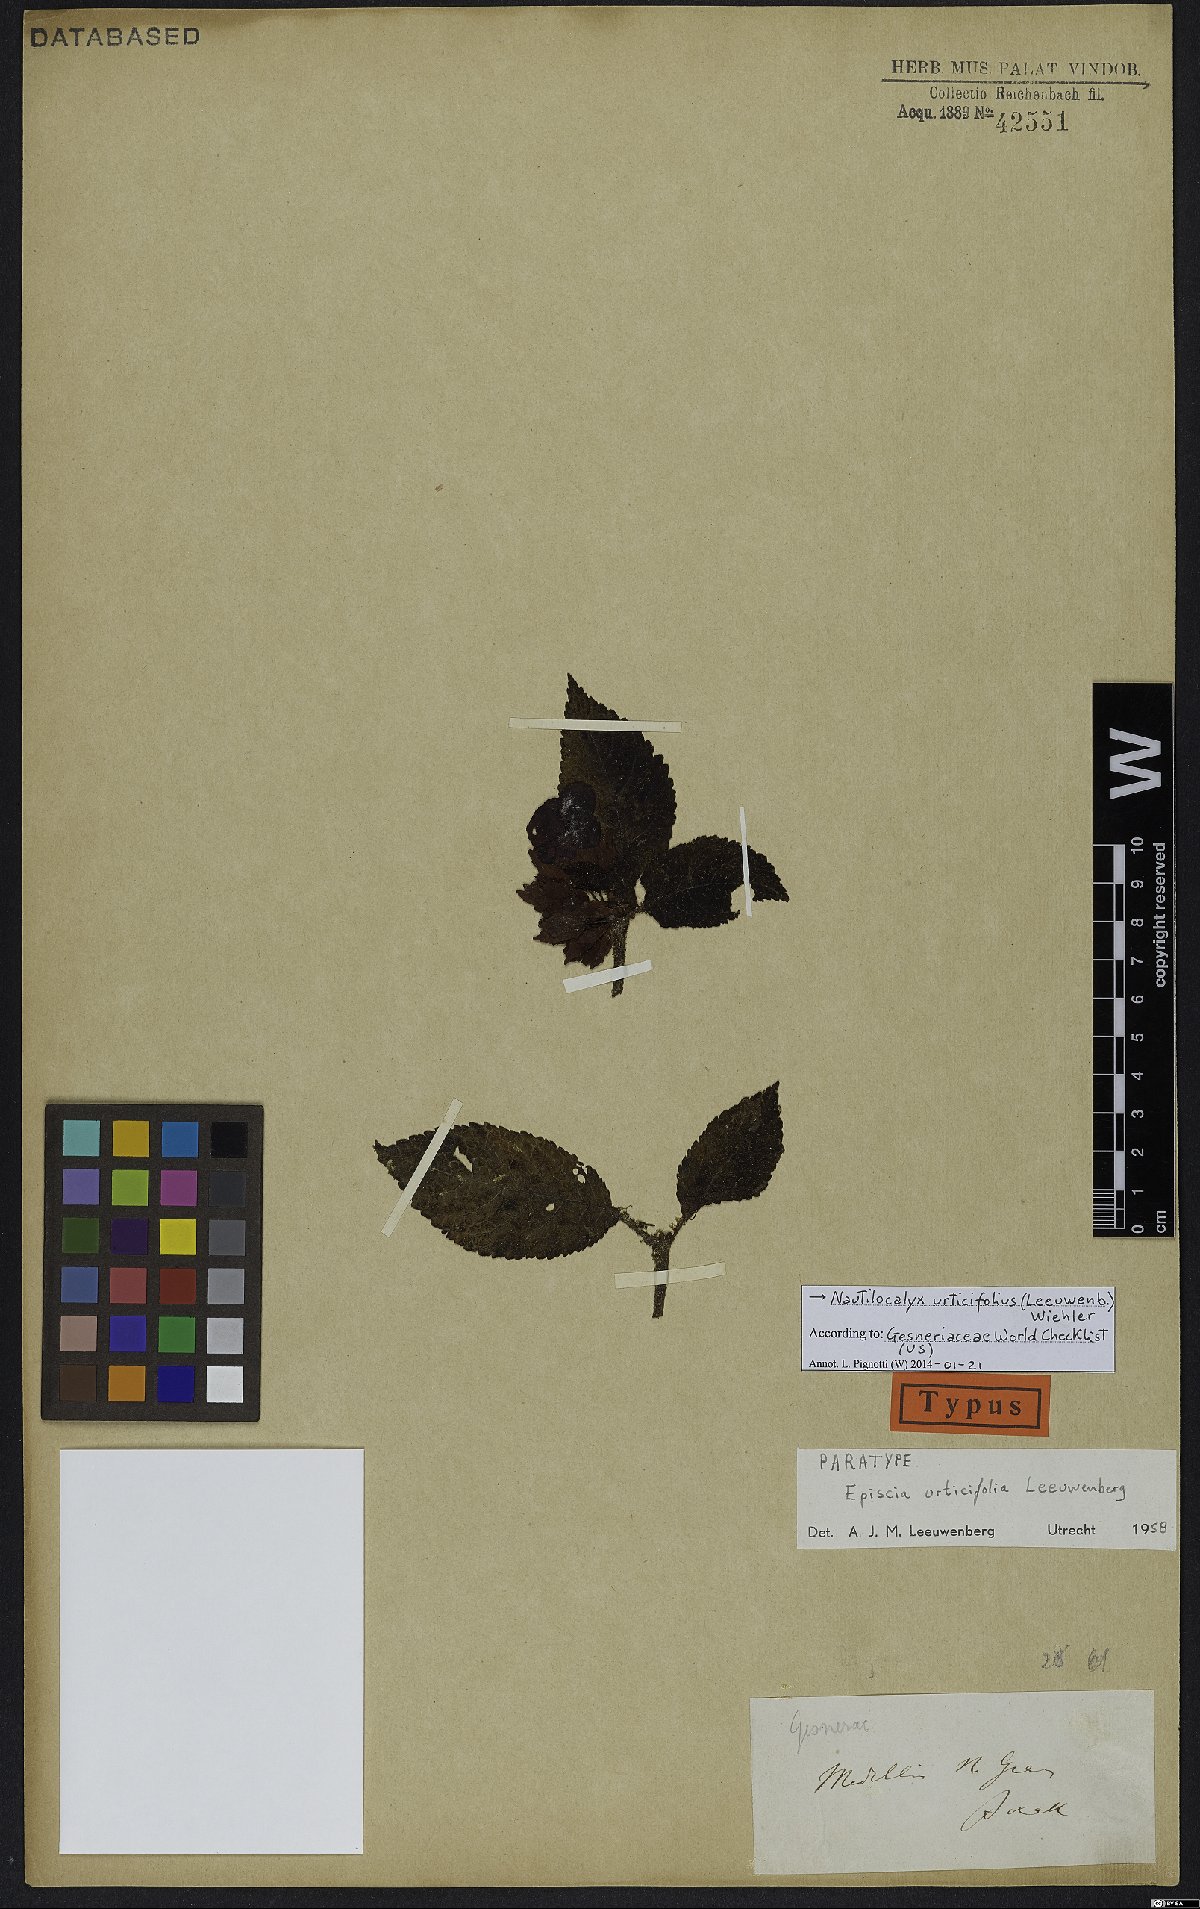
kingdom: Plantae
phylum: Tracheophyta
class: Magnoliopsida
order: Lamiales
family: Gesneriaceae
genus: Nautilocalyx
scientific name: Nautilocalyx urticifolius
